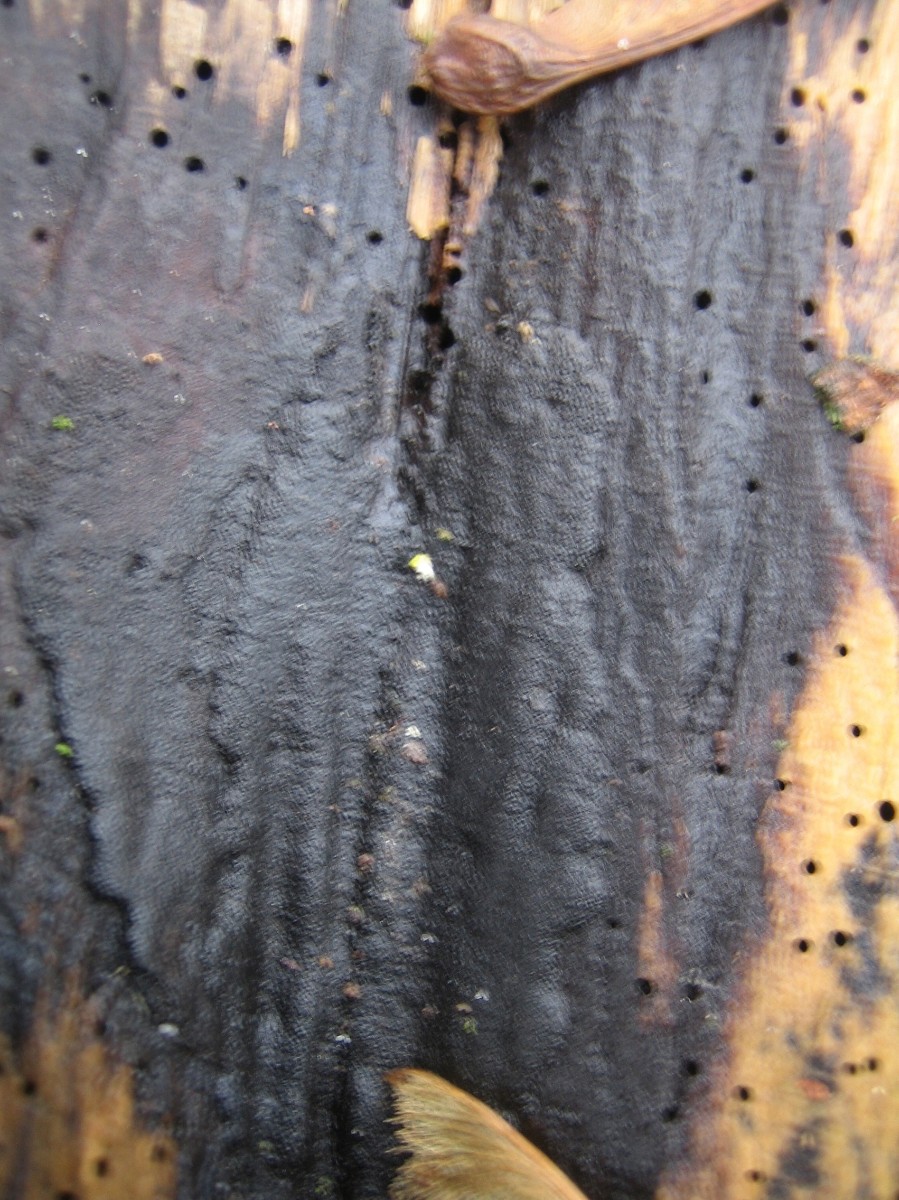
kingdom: Fungi
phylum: Ascomycota
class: Sordariomycetes
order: Xylariales
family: Hypoxylaceae
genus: Hypoxylon
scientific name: Hypoxylon macrocarpum
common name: skorpe-kulbær
